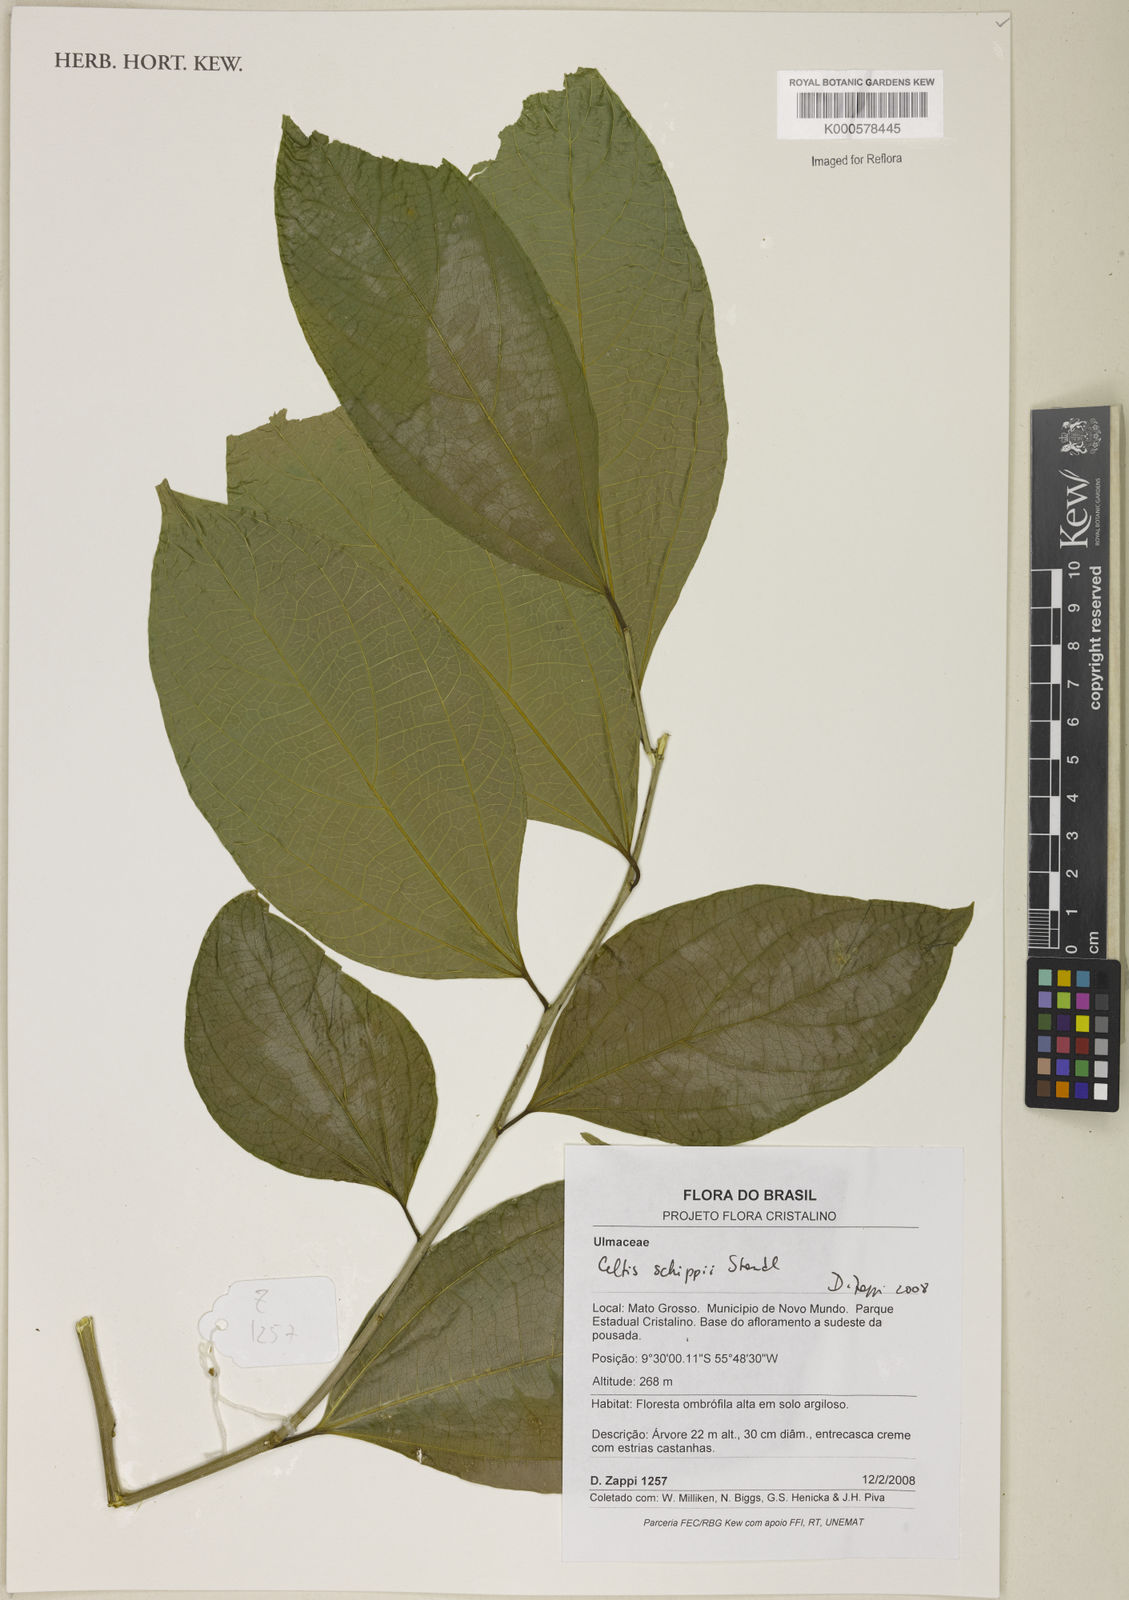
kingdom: Plantae
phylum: Tracheophyta
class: Magnoliopsida
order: Rosales
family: Cannabaceae
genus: Celtis
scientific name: Celtis schippii
